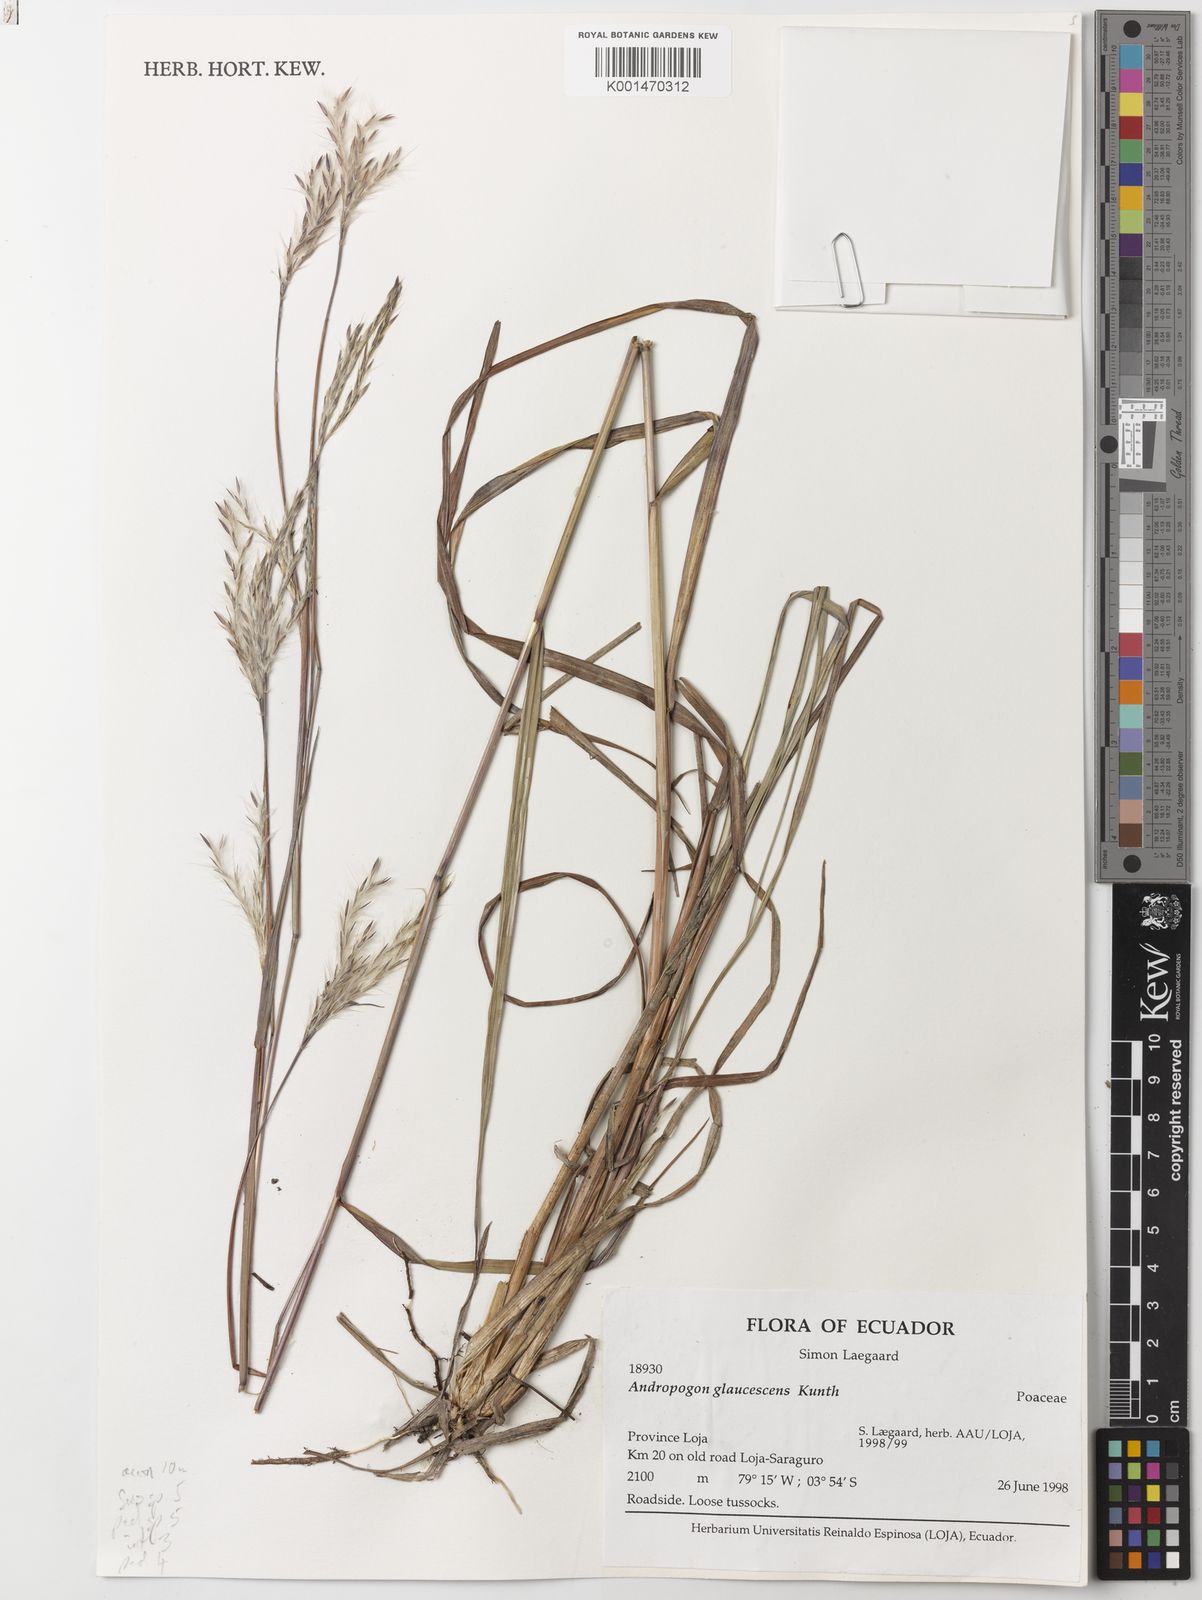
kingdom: Plantae
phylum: Tracheophyta
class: Liliopsida
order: Poales
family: Poaceae
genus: Andropogon
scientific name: Andropogon glaucescens
